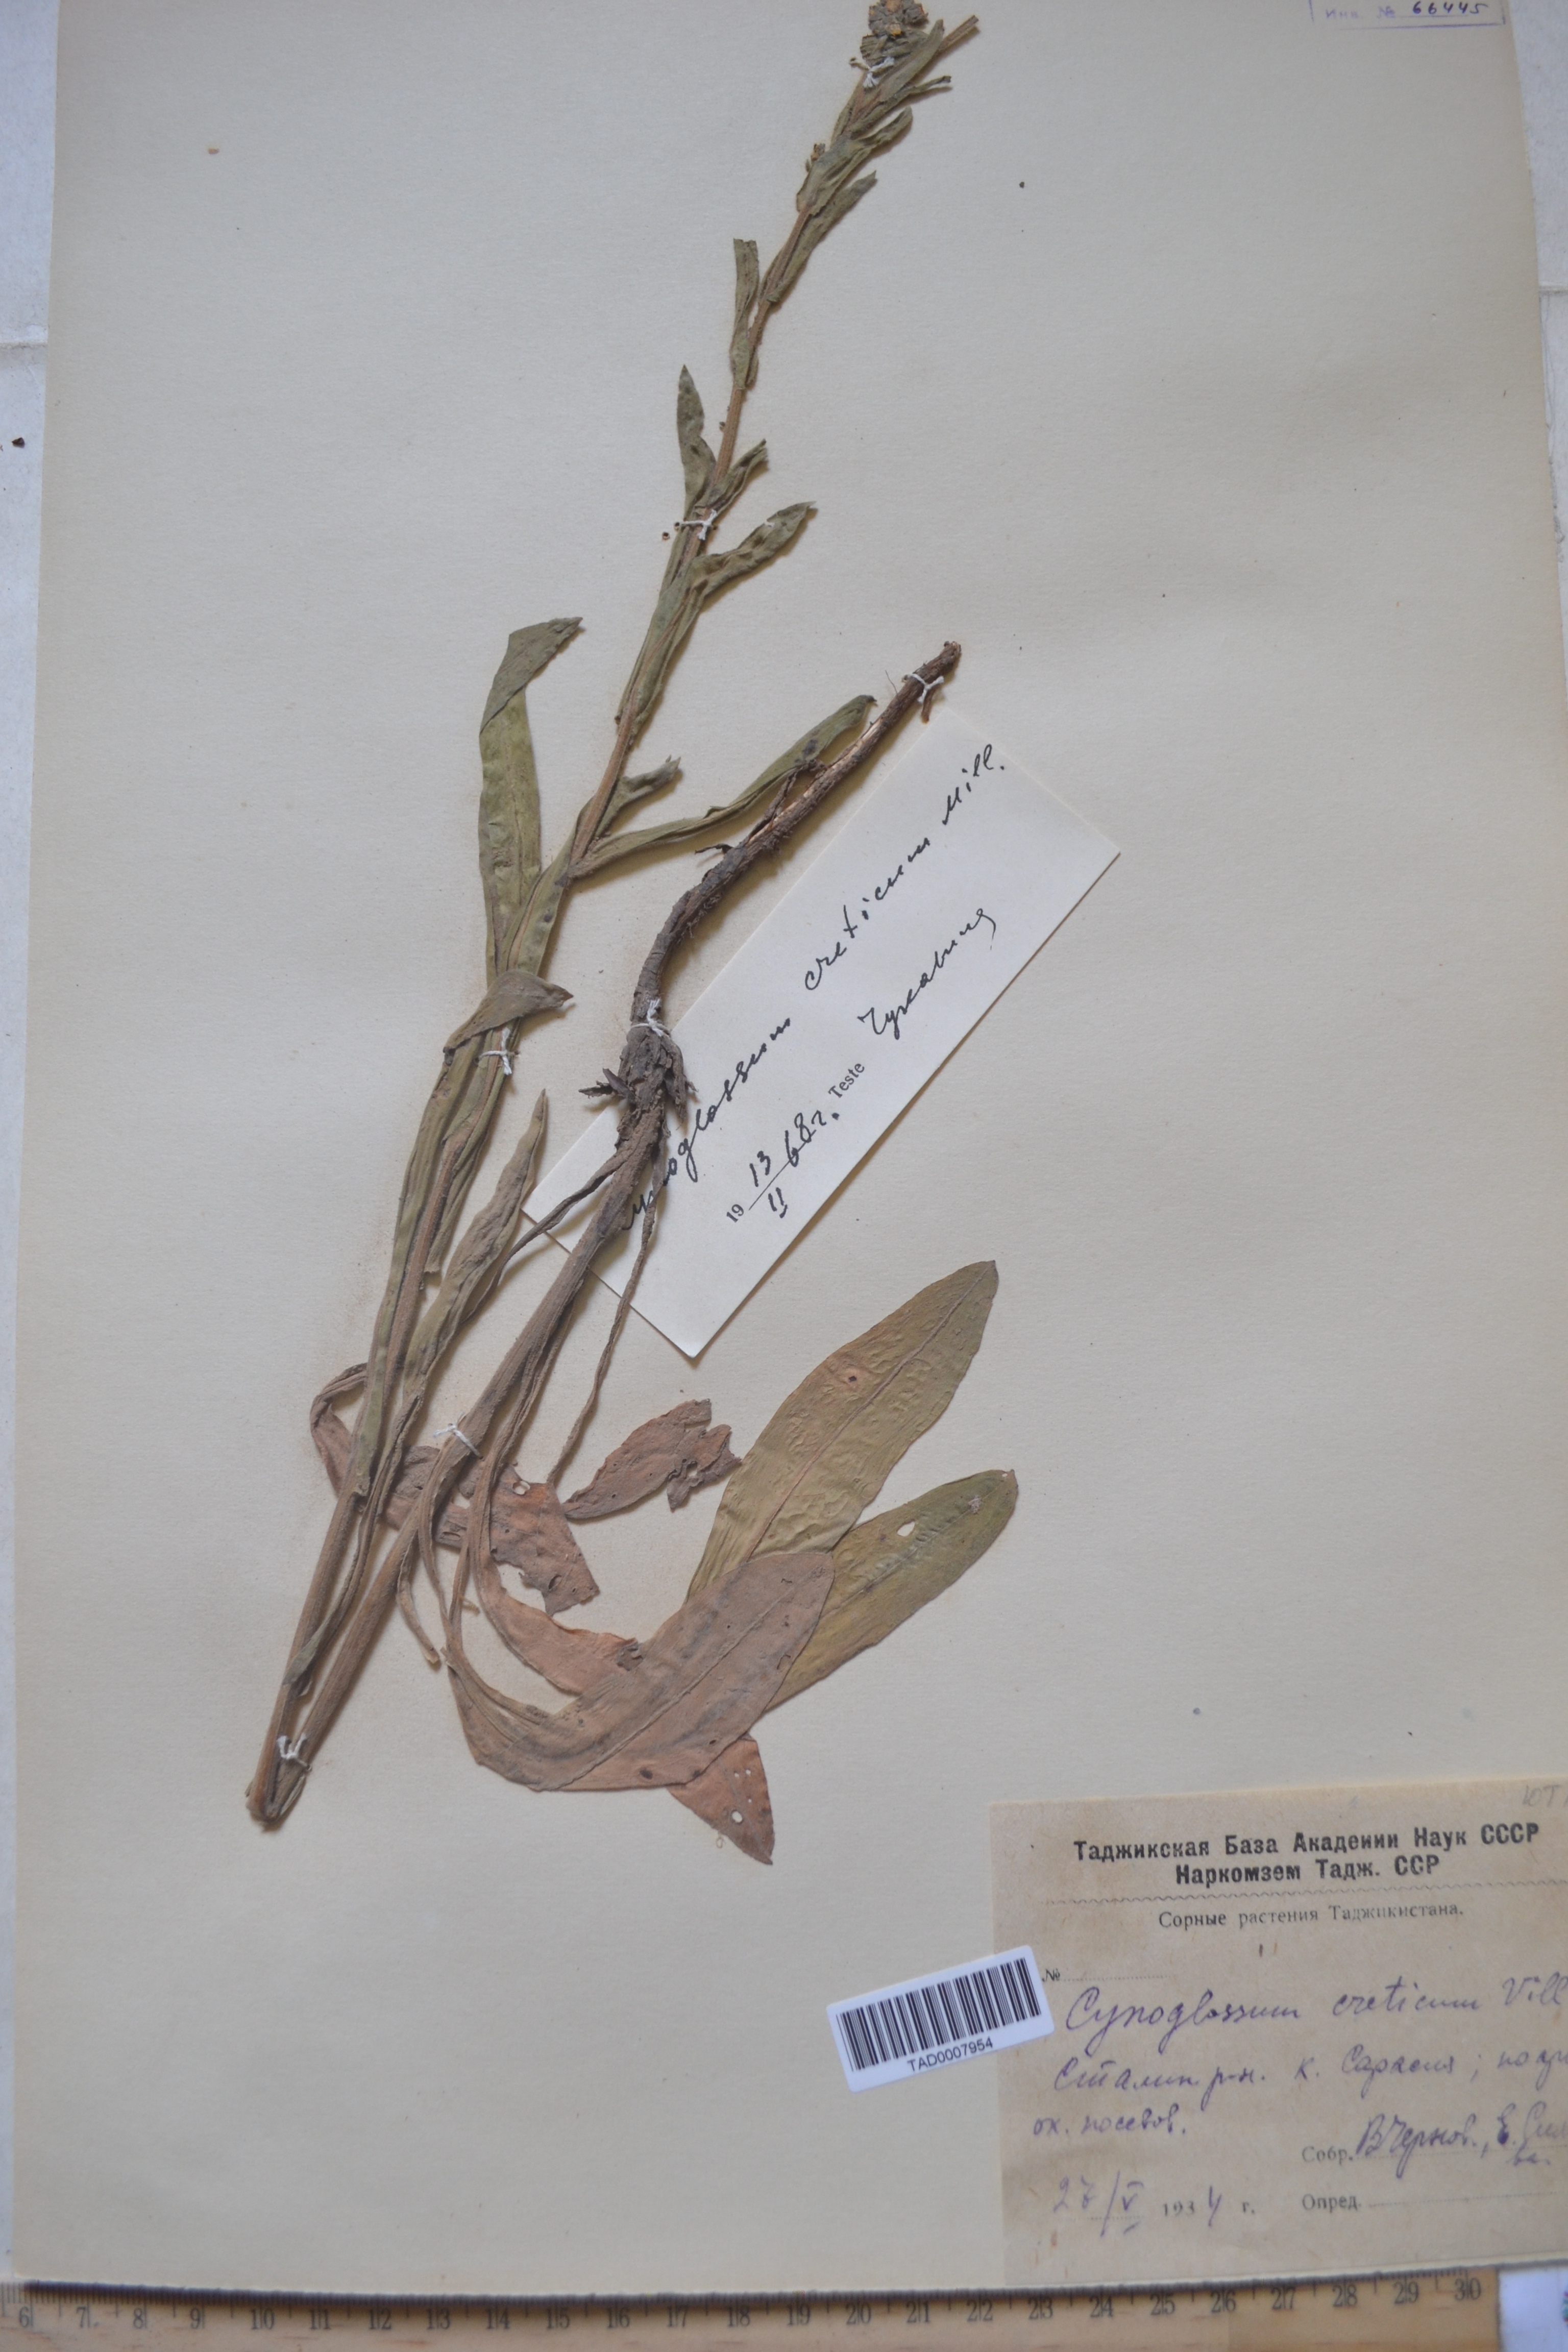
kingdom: Plantae
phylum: Tracheophyta
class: Magnoliopsida
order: Boraginales
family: Boraginaceae
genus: Cynoglossum
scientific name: Cynoglossum creticum
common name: Blue hound's tongue
